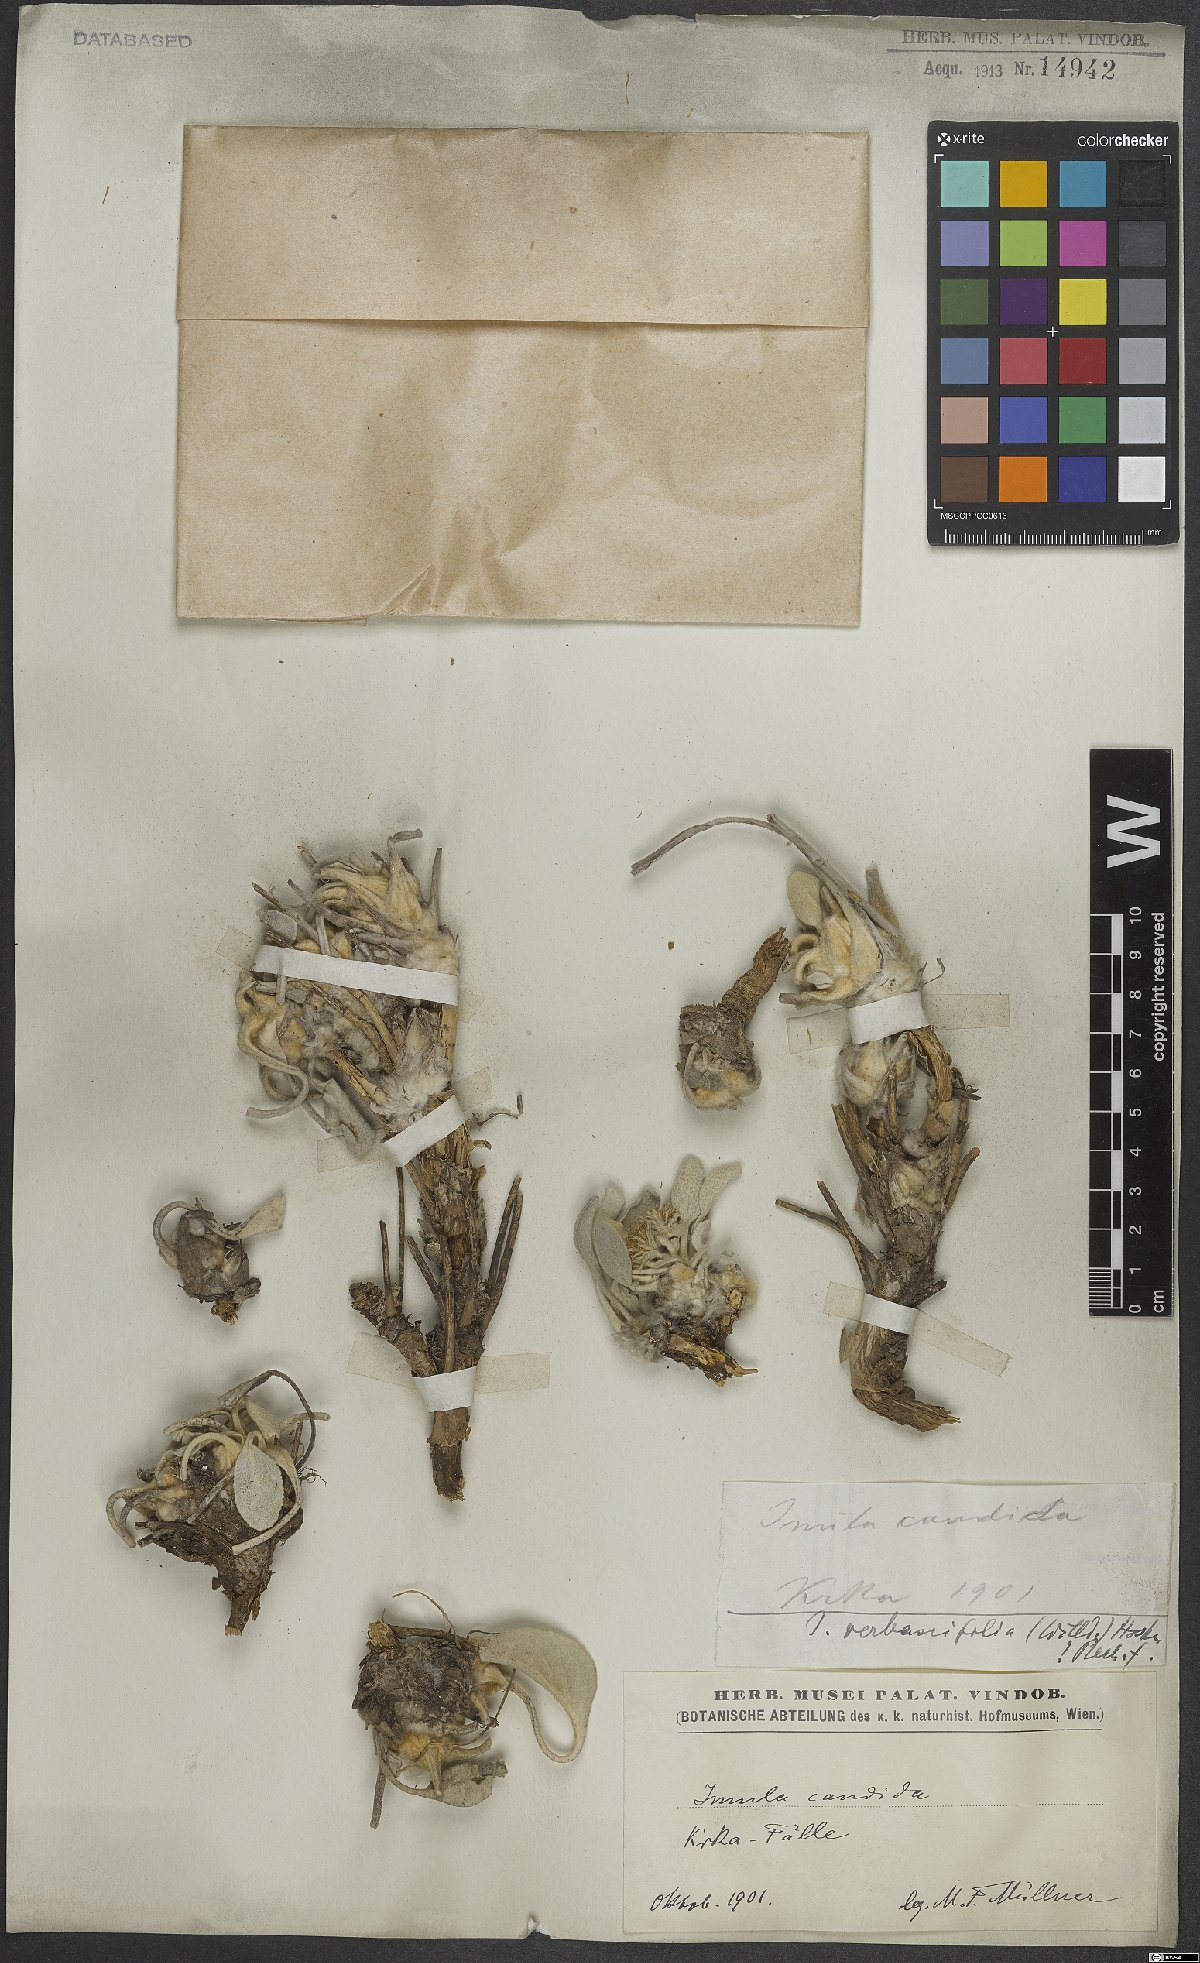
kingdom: Plantae
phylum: Tracheophyta
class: Magnoliopsida
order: Asterales
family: Asteraceae
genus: Pentanema
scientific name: Pentanema verbascifolium
